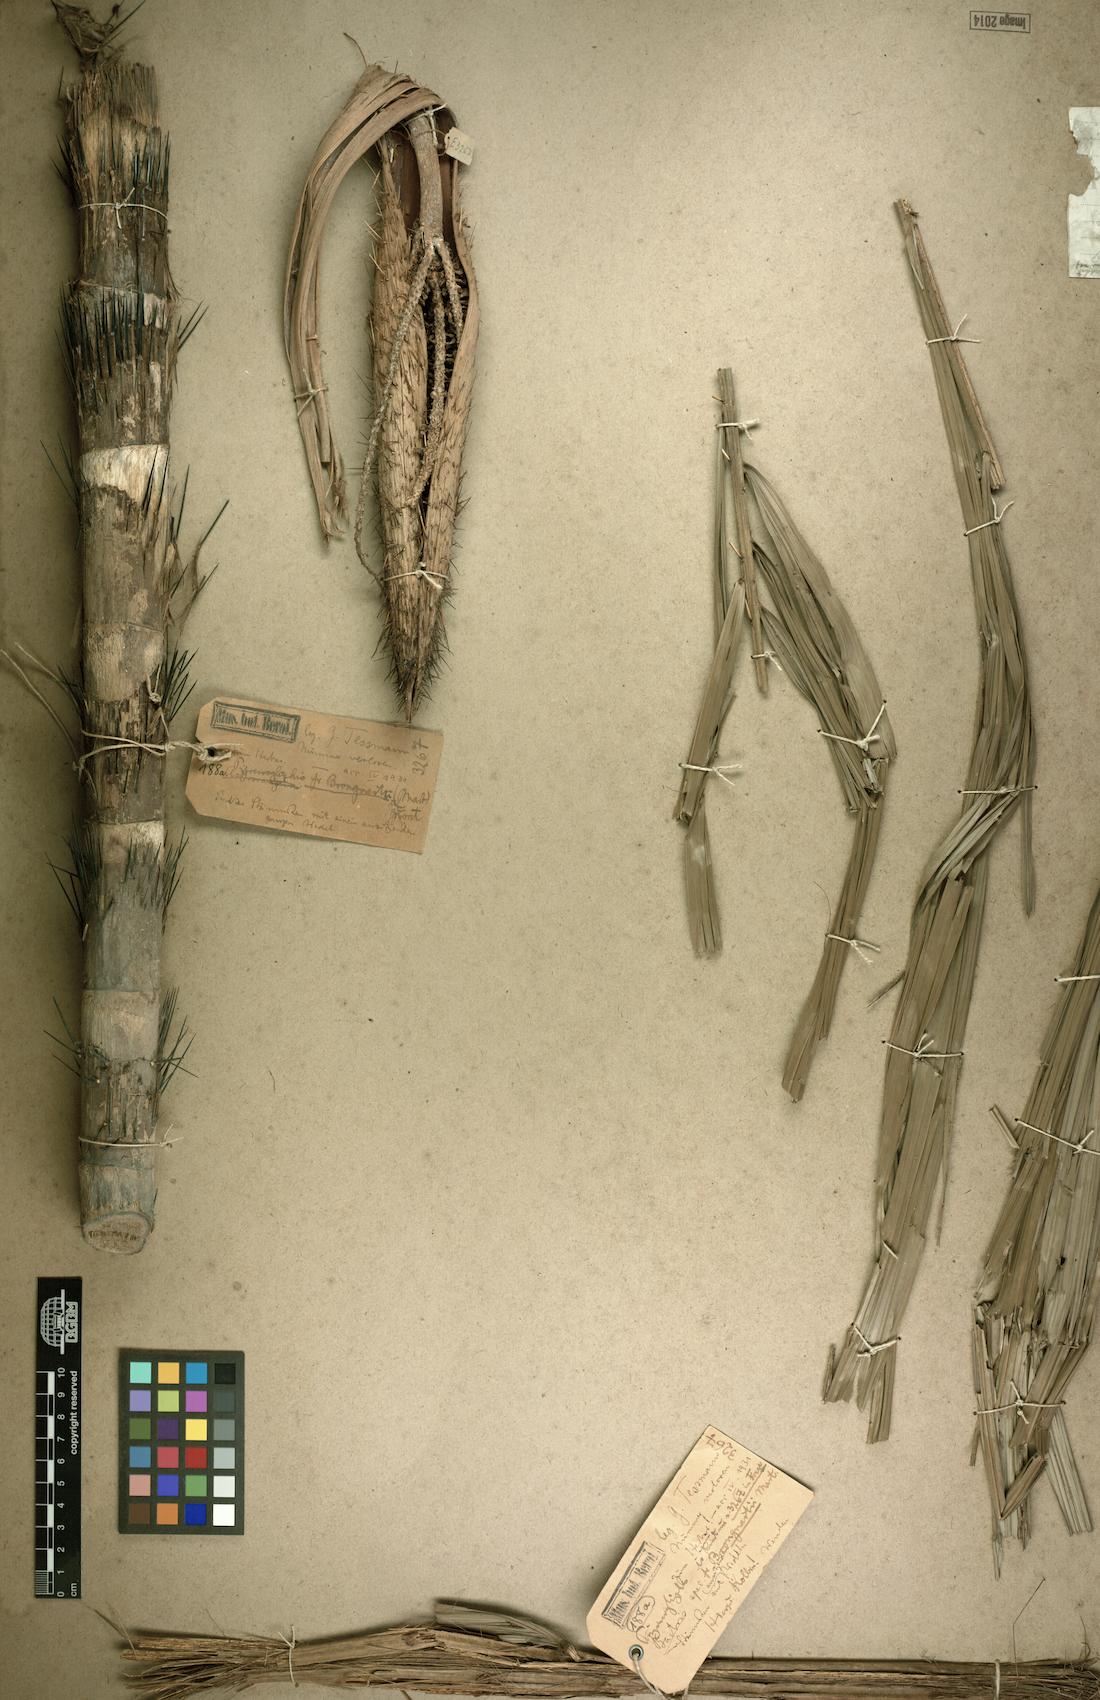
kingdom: Plantae
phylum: Tracheophyta
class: Liliopsida
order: Arecales
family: Arecaceae
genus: Bactris
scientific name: Bactris brongniartii
